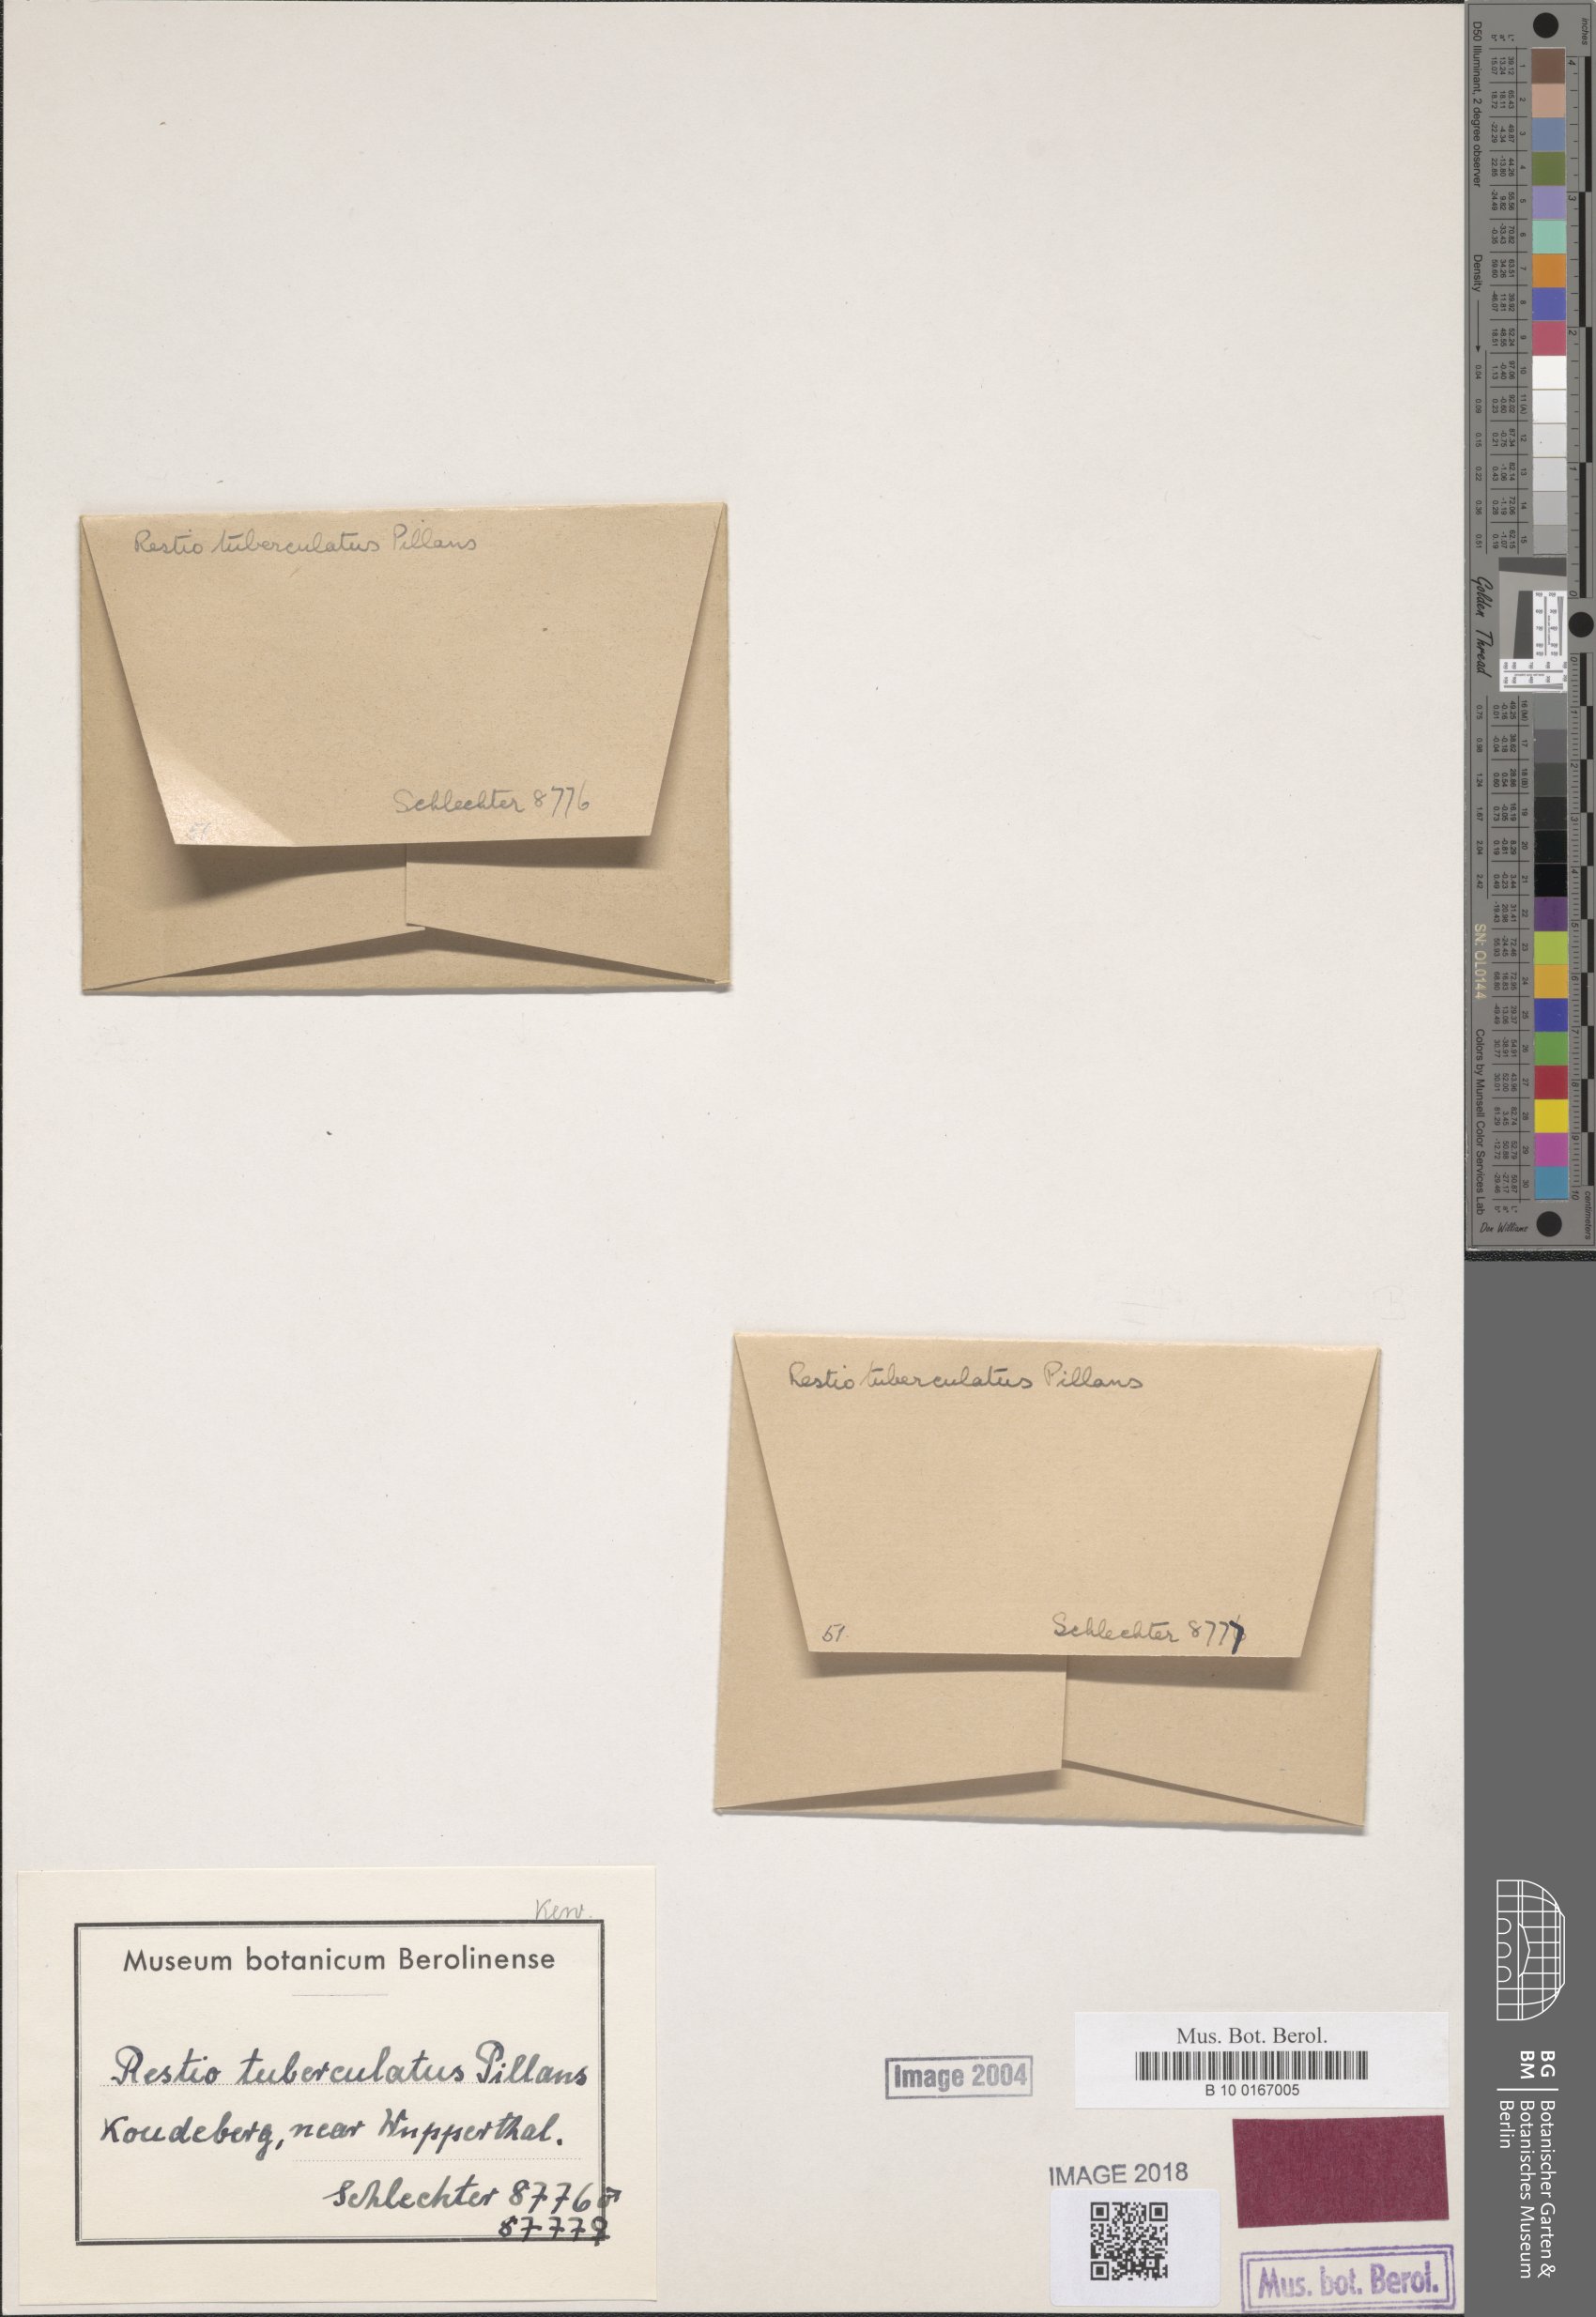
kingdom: Plantae
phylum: Tracheophyta
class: Liliopsida
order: Poales
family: Restionaceae
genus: Restio
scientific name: Restio tuberculatus
